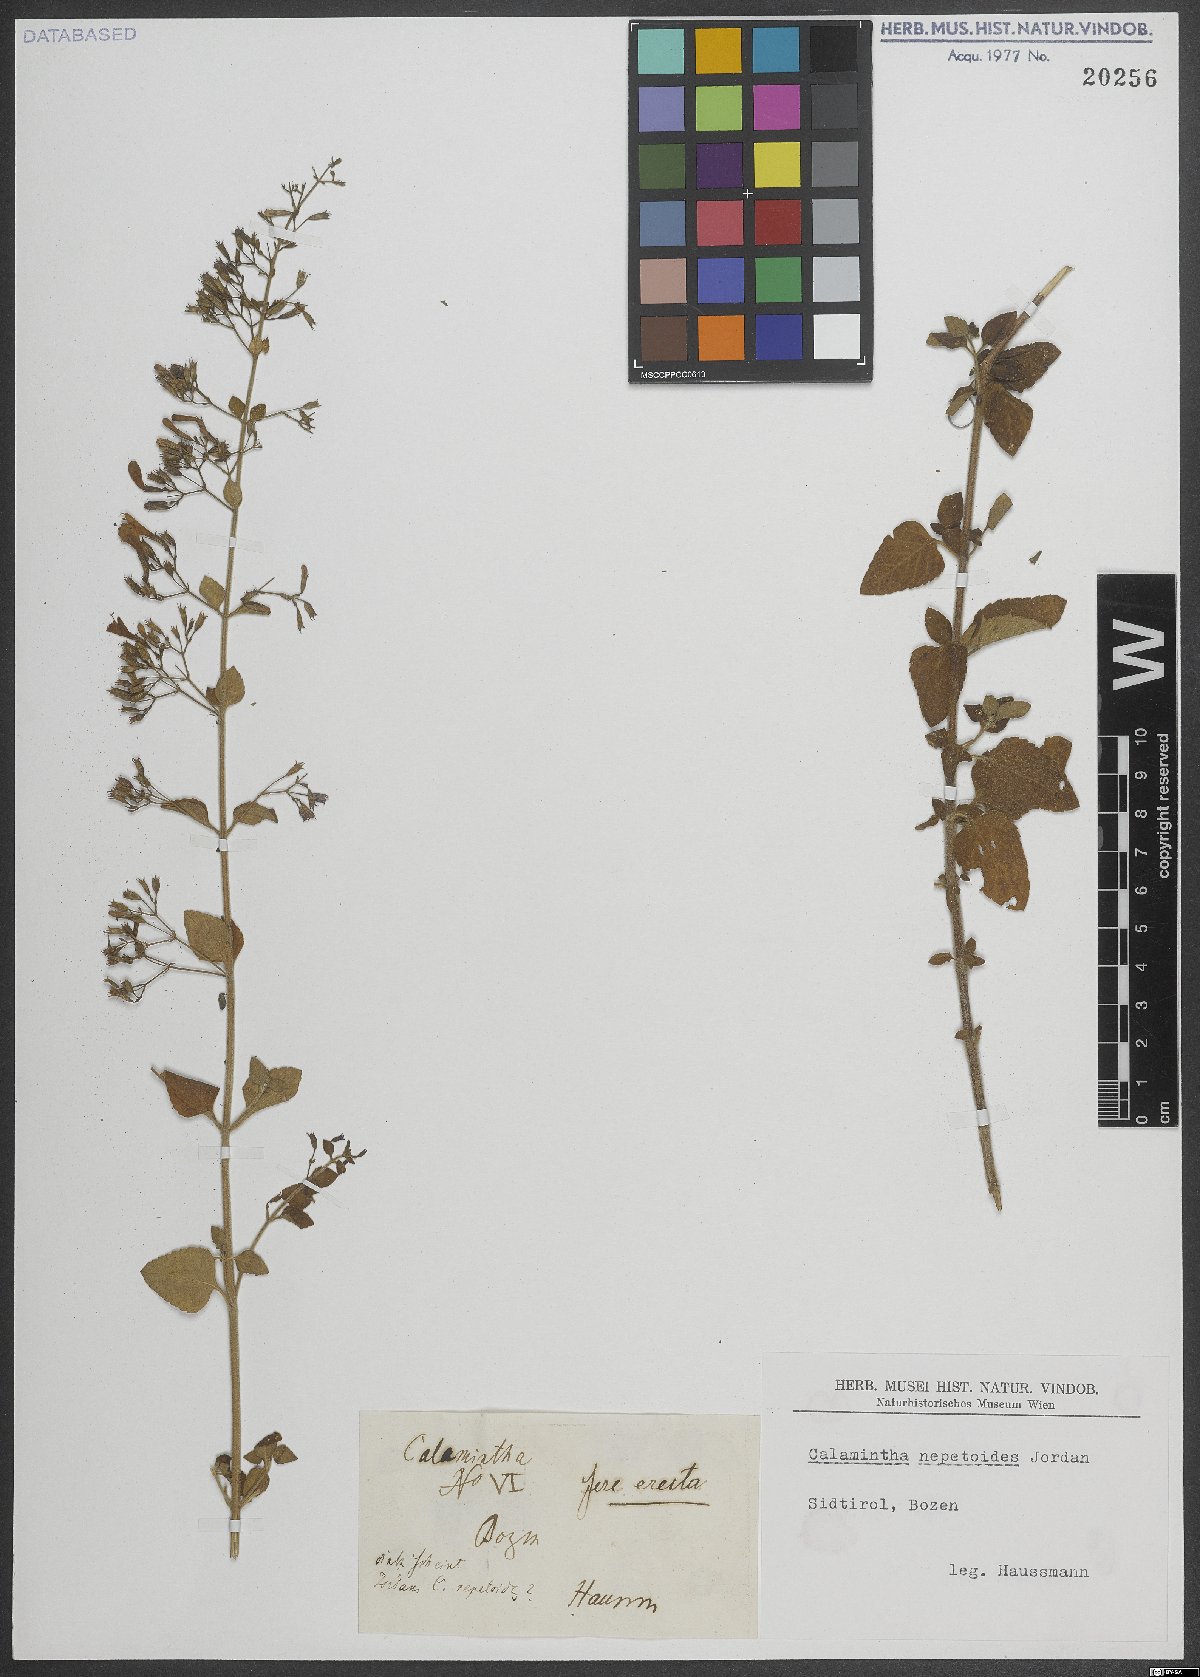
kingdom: Plantae
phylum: Tracheophyta
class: Magnoliopsida
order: Lamiales
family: Lamiaceae
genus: Clinopodium
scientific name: Clinopodium nepeta
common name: Lesser calamint
